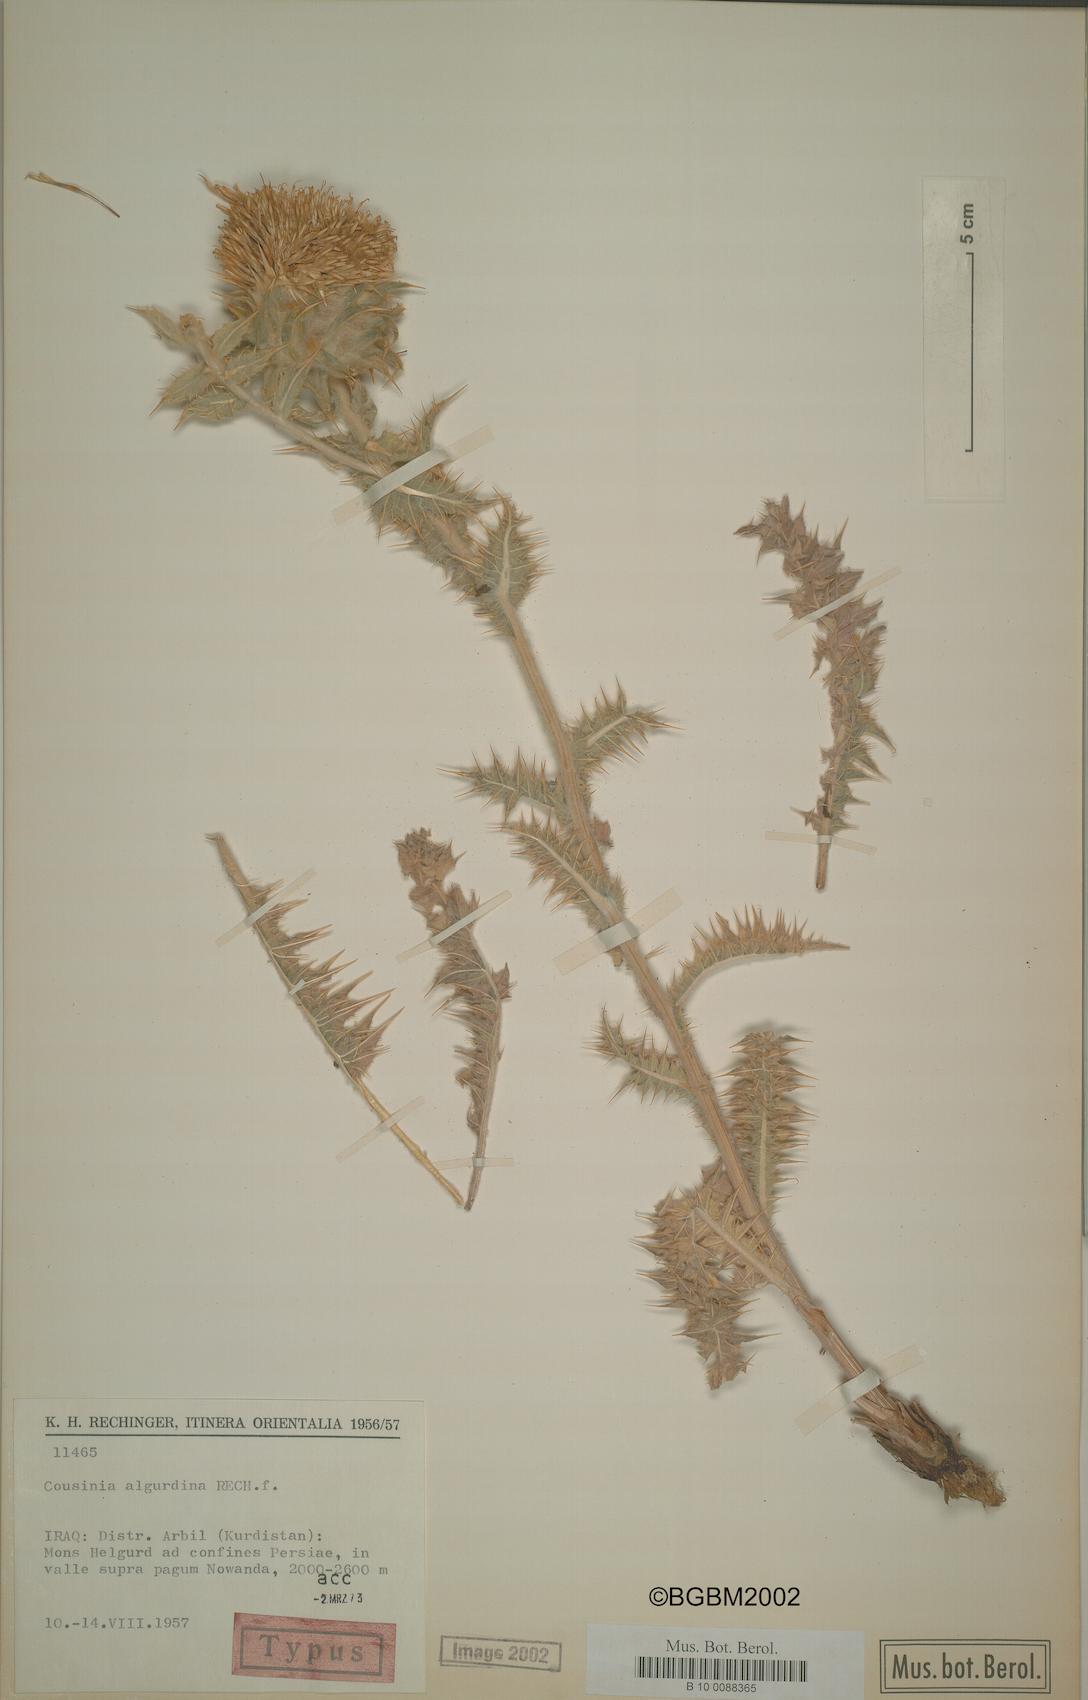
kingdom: Plantae
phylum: Tracheophyta
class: Magnoliopsida
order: Asterales
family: Asteraceae
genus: Cousinia
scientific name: Cousinia algurdina
